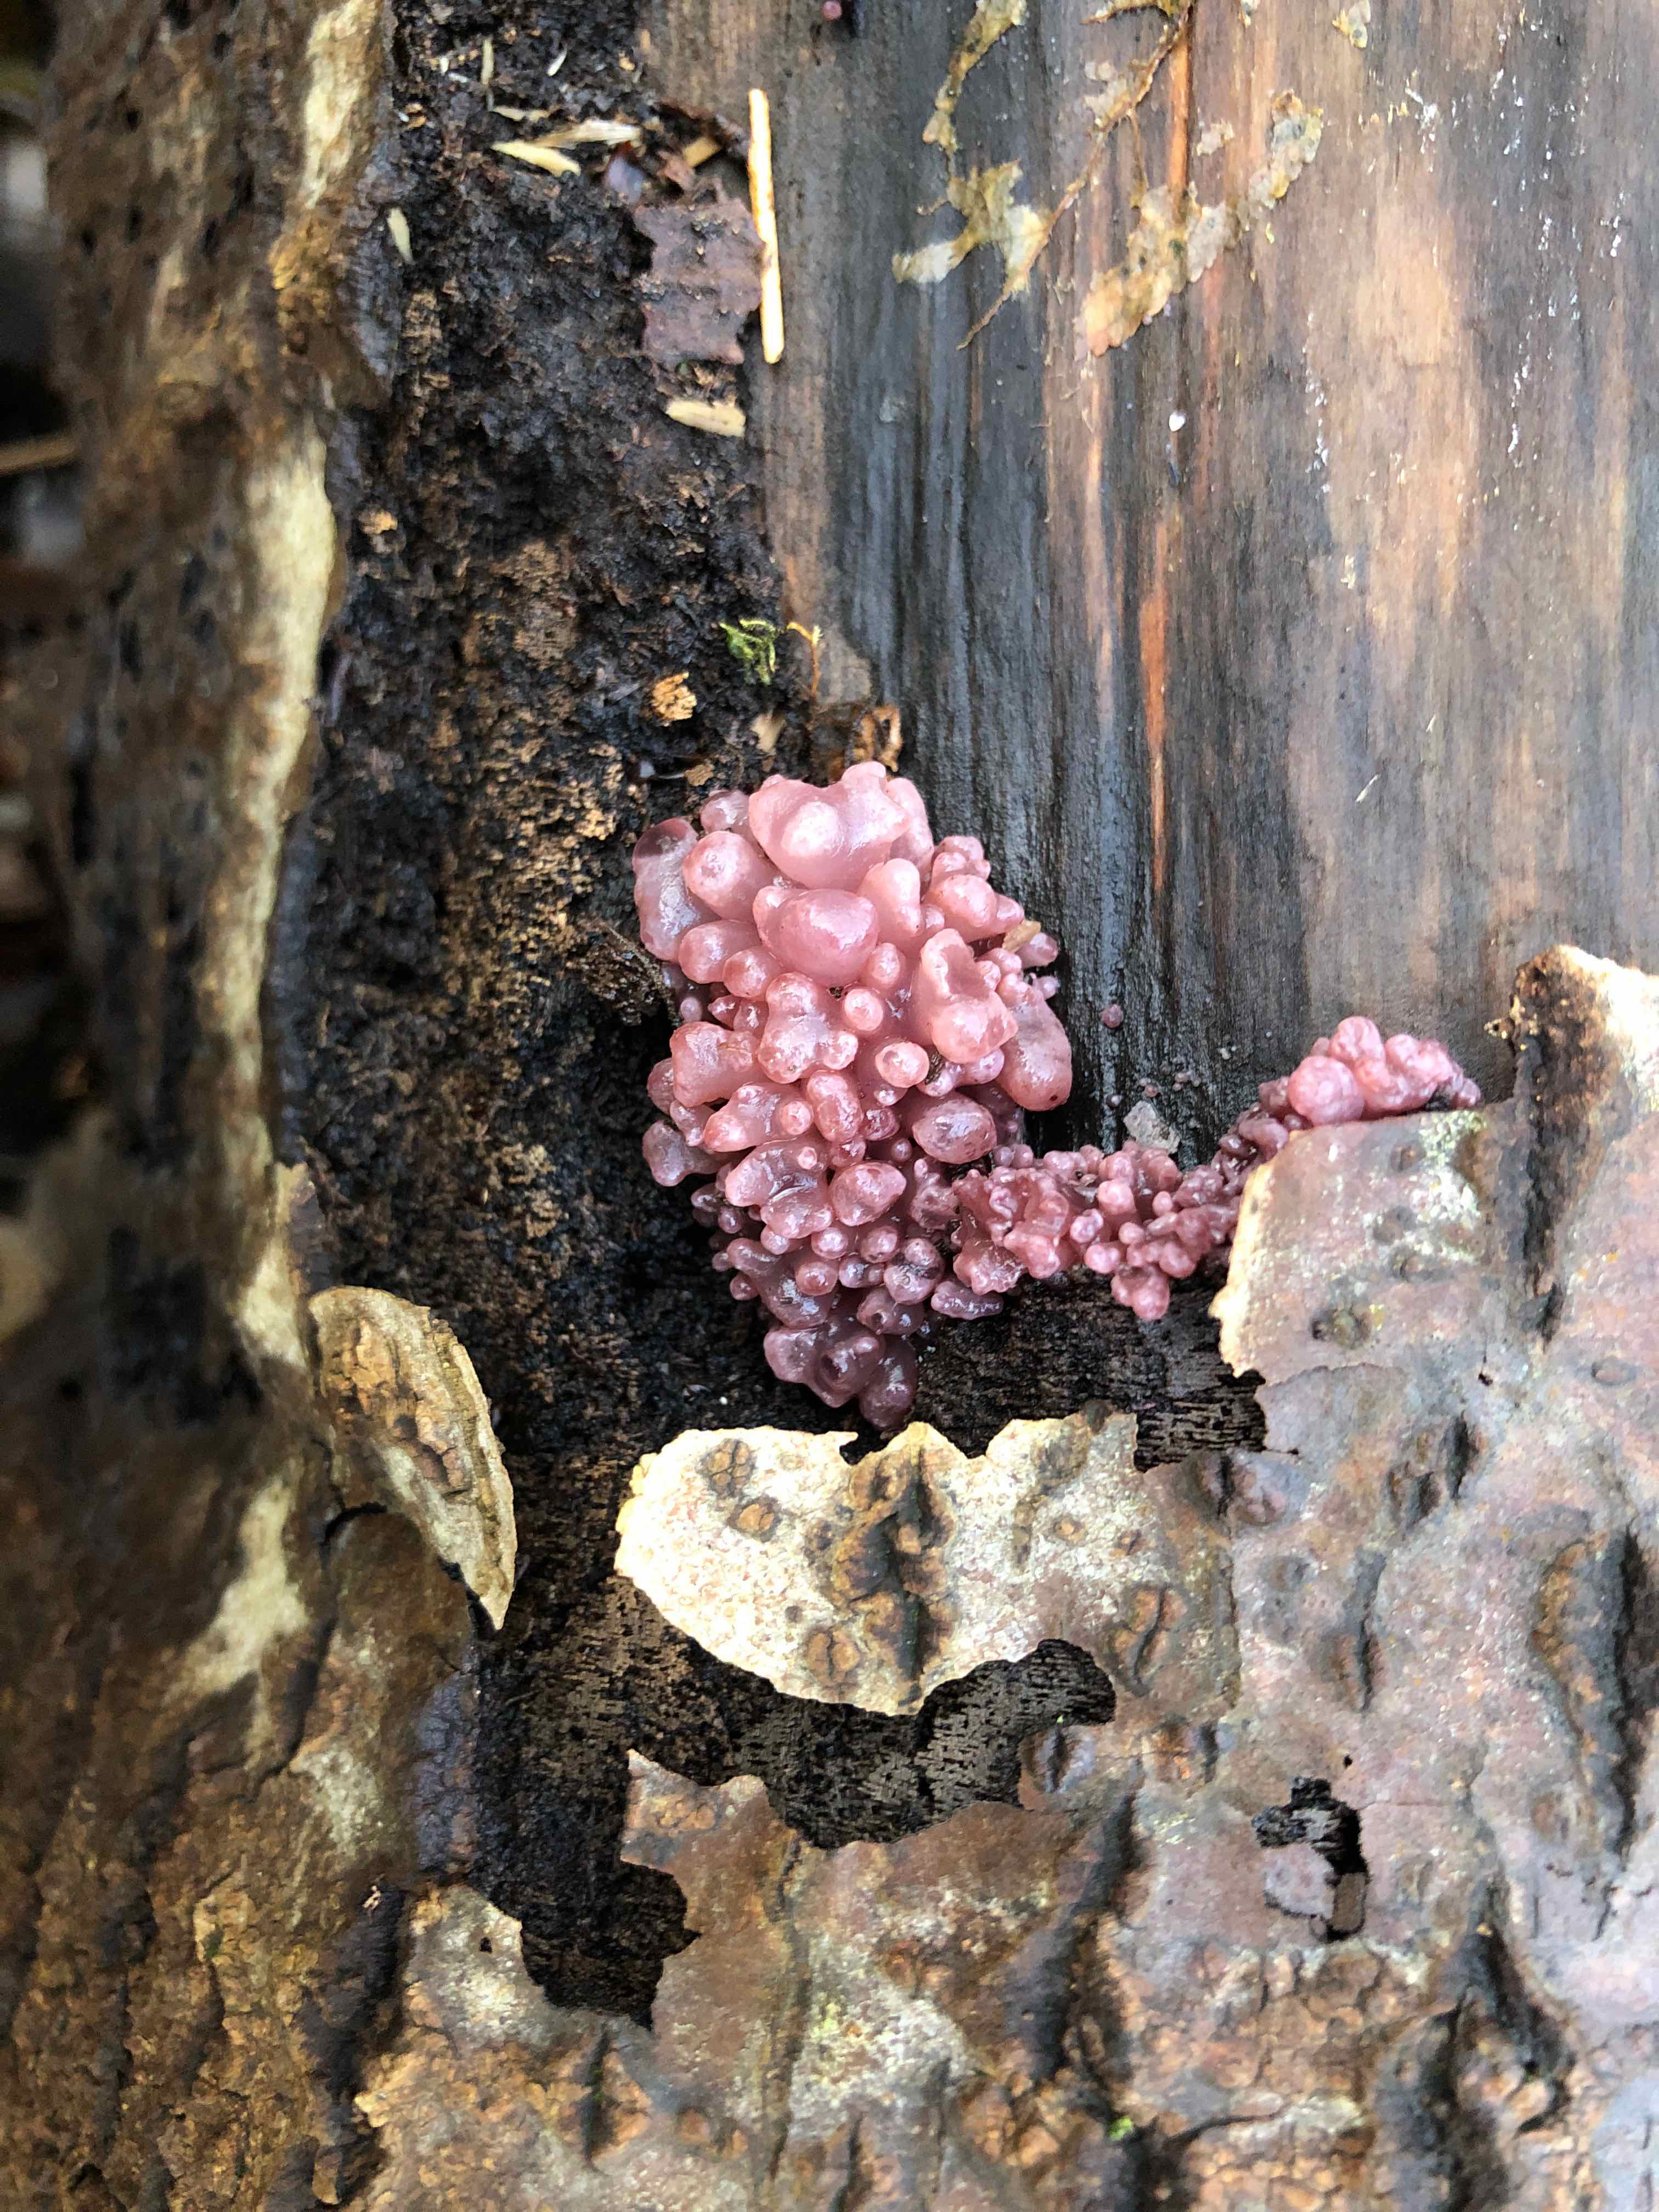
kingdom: Fungi
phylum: Ascomycota
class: Leotiomycetes
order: Helotiales
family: Gelatinodiscaceae
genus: Ascocoryne
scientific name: Ascocoryne sarcoides
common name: rødlilla sejskive
